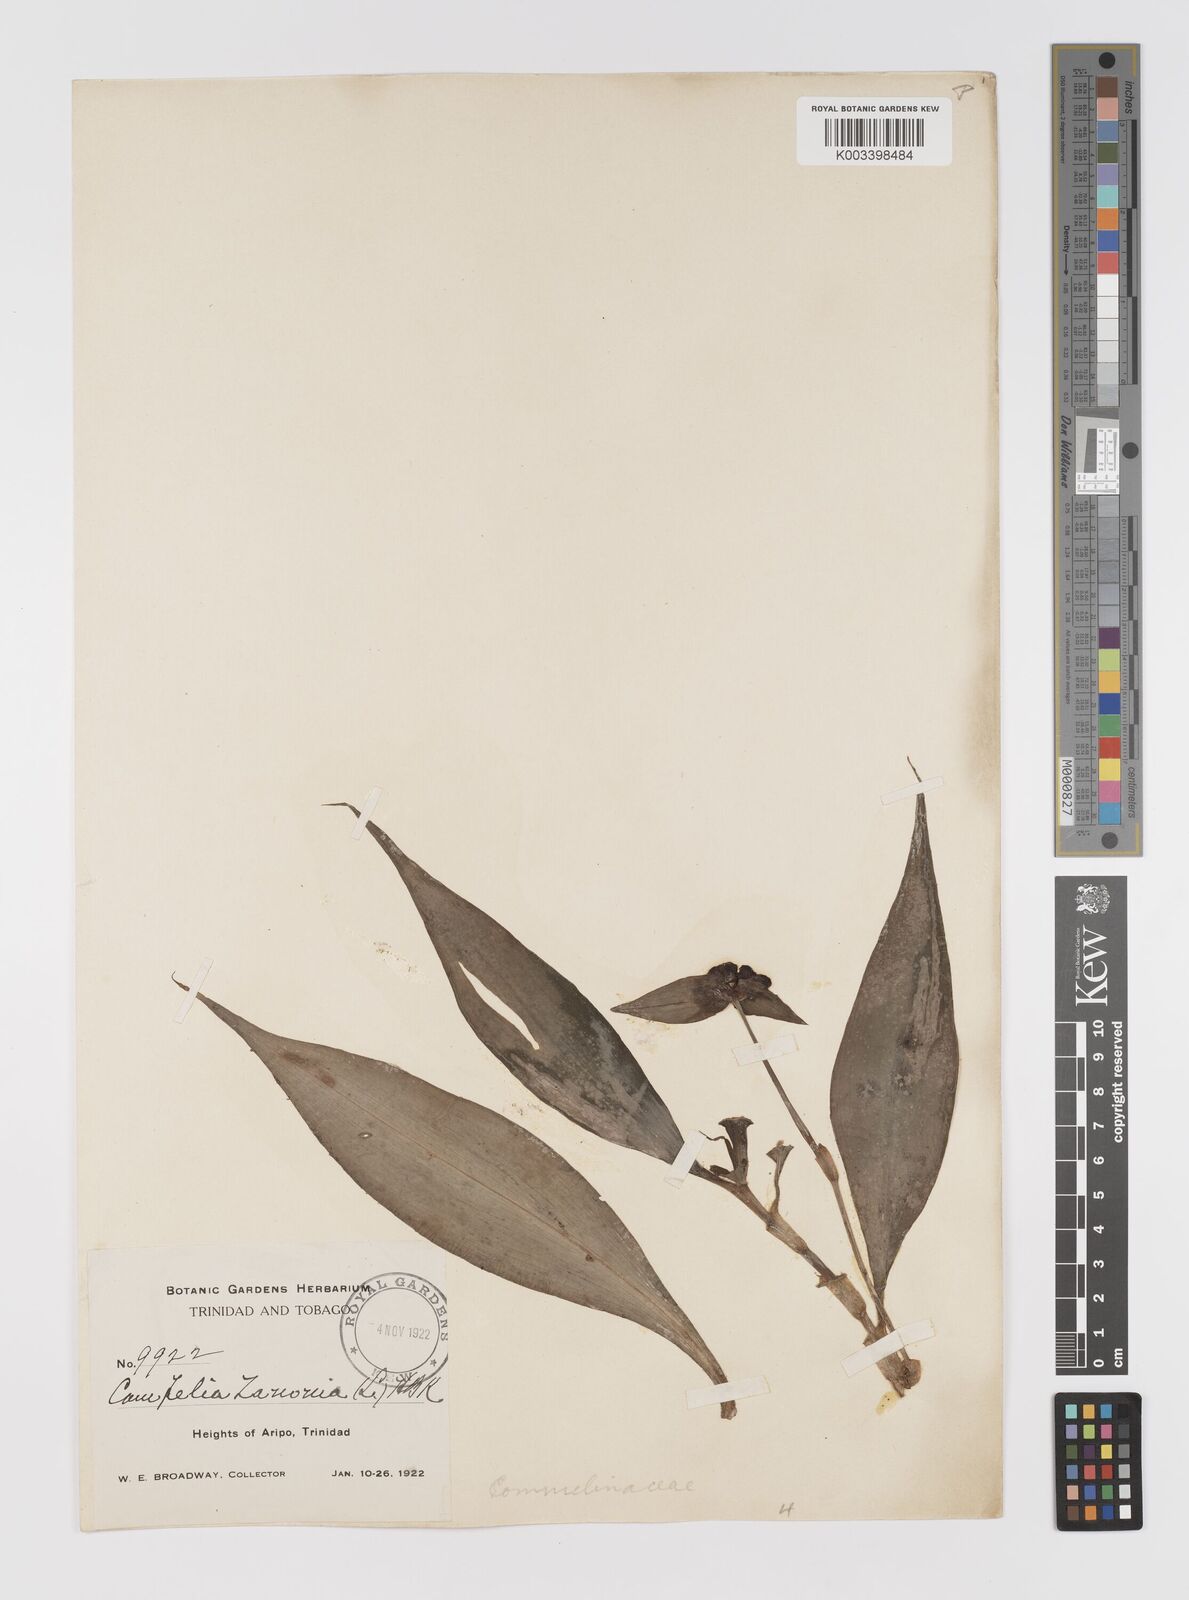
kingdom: Plantae
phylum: Tracheophyta
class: Liliopsida
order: Commelinales
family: Commelinaceae
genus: Tradescantia
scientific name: Tradescantia zanonia
